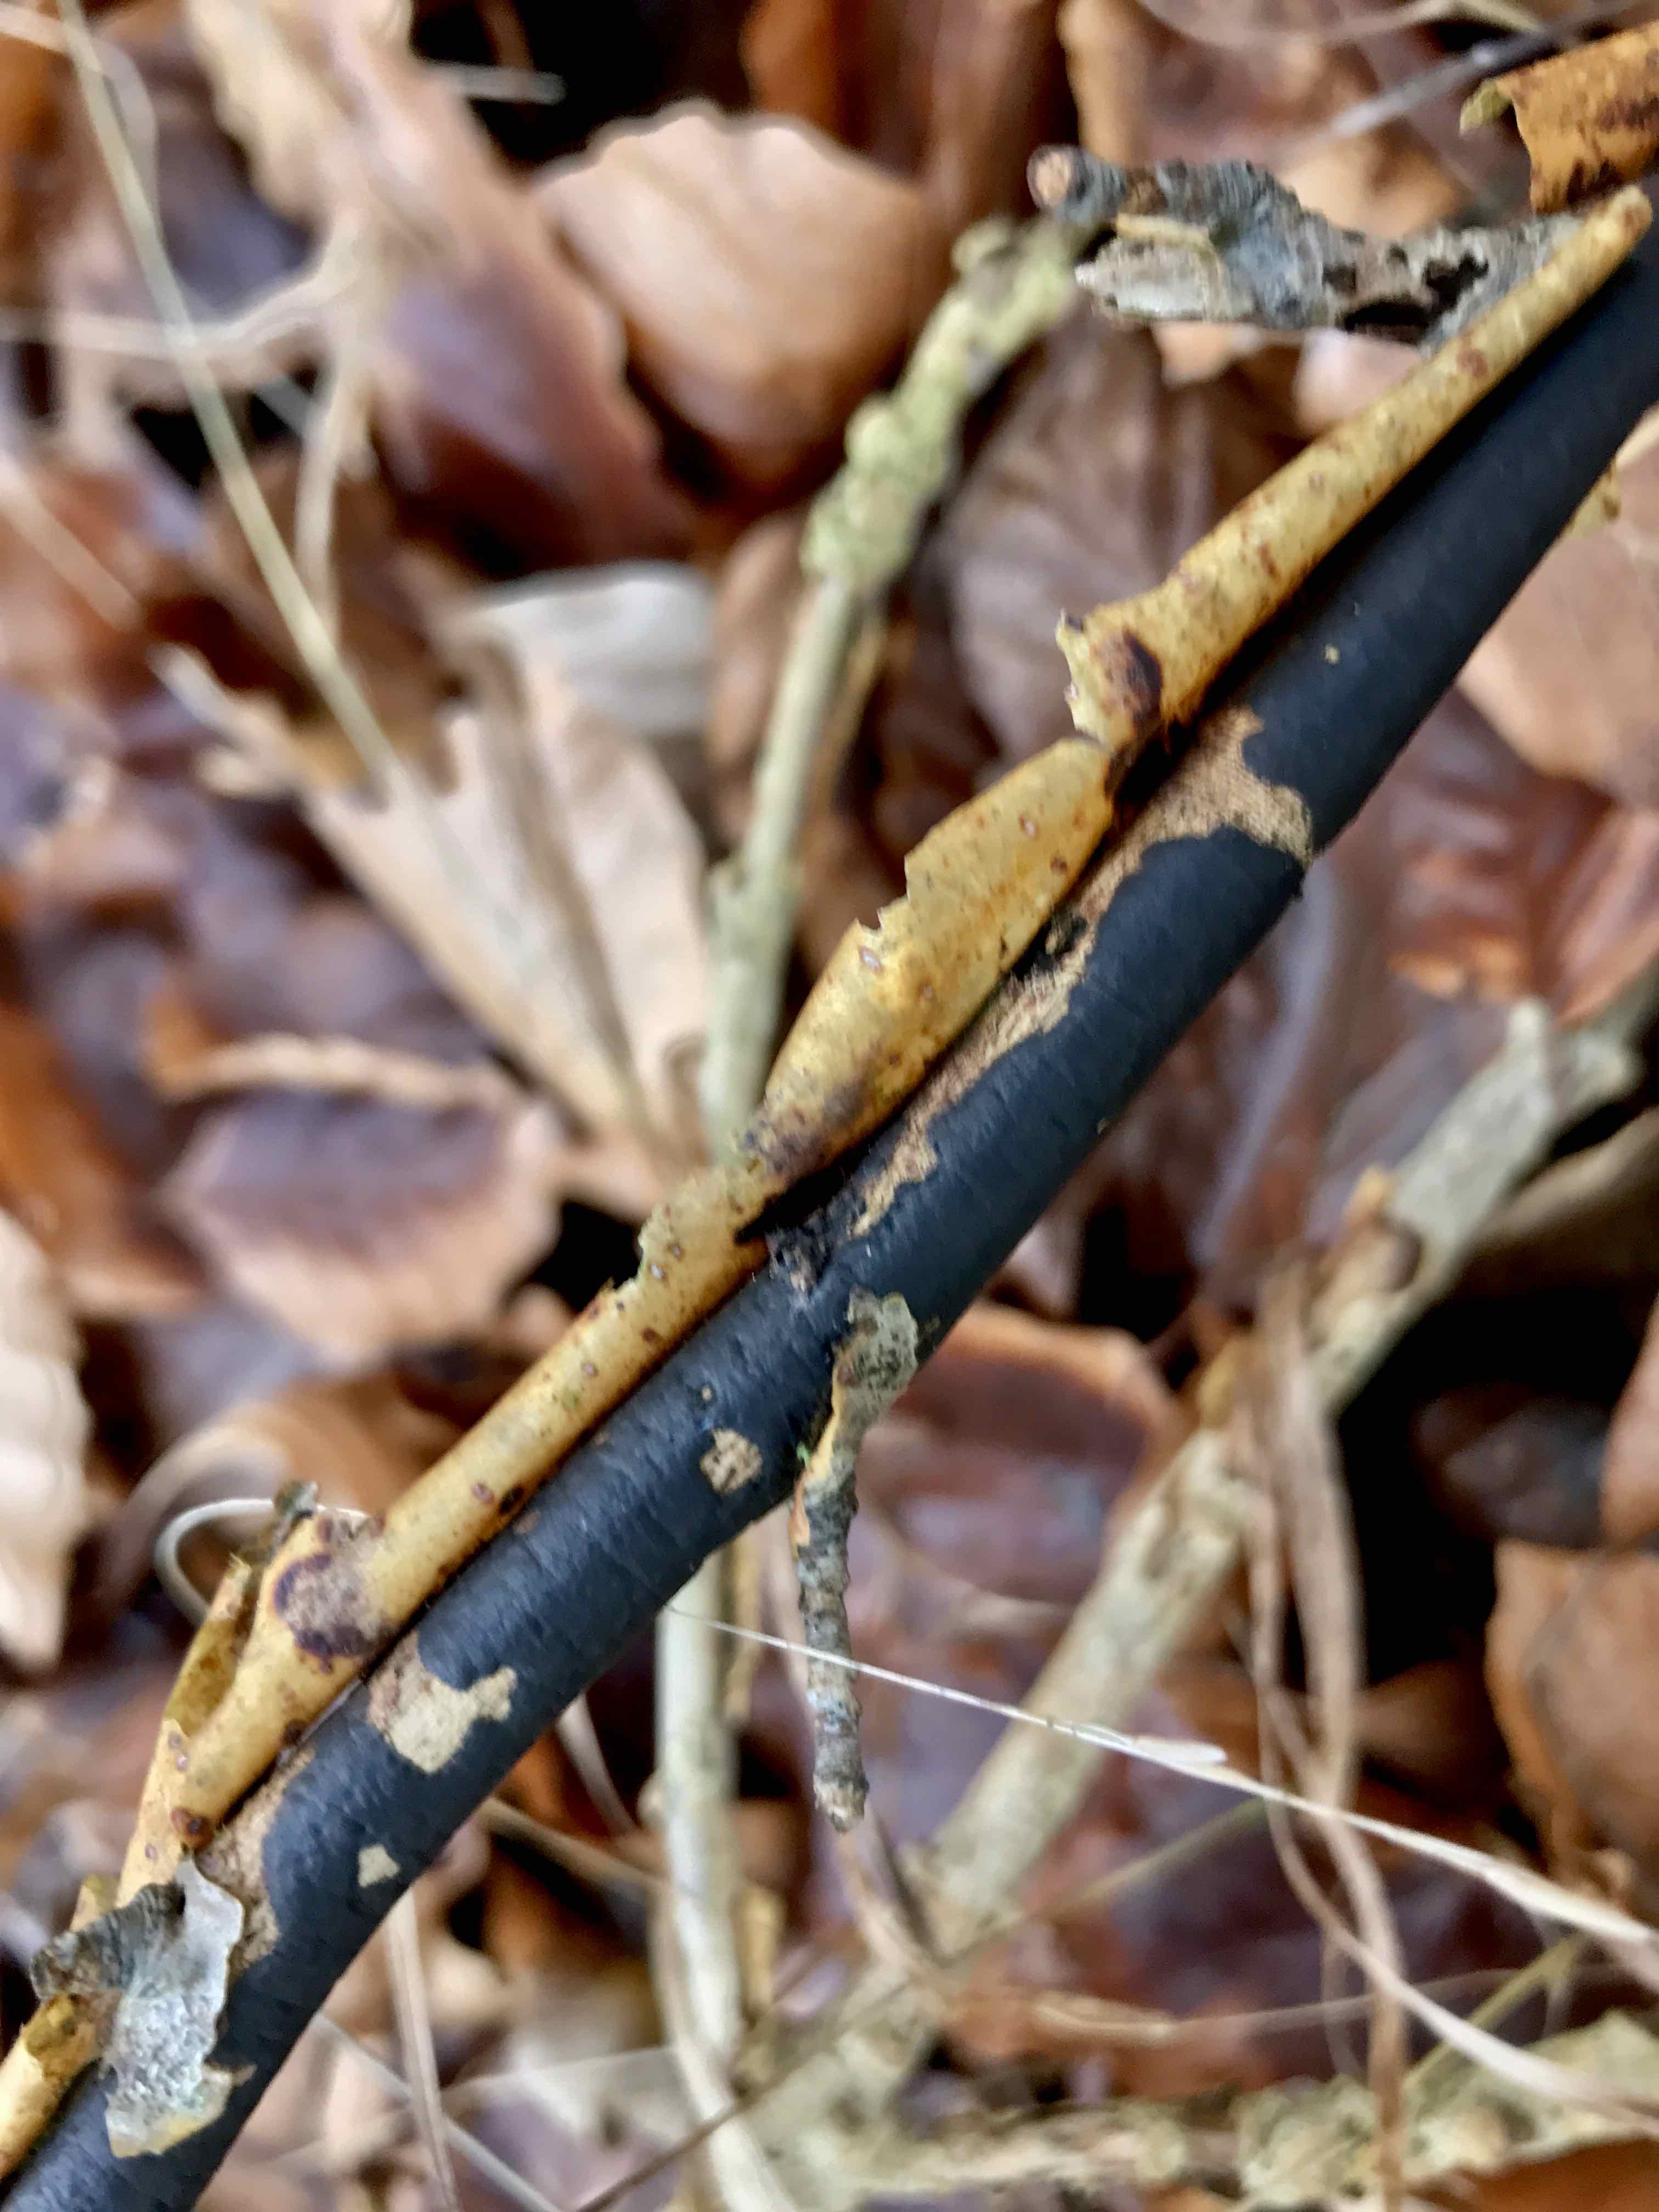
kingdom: Fungi
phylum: Ascomycota
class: Sordariomycetes
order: Xylariales
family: Diatrypaceae
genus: Diatrype
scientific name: Diatrype decorticata
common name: barksprænger-kulskorpe
